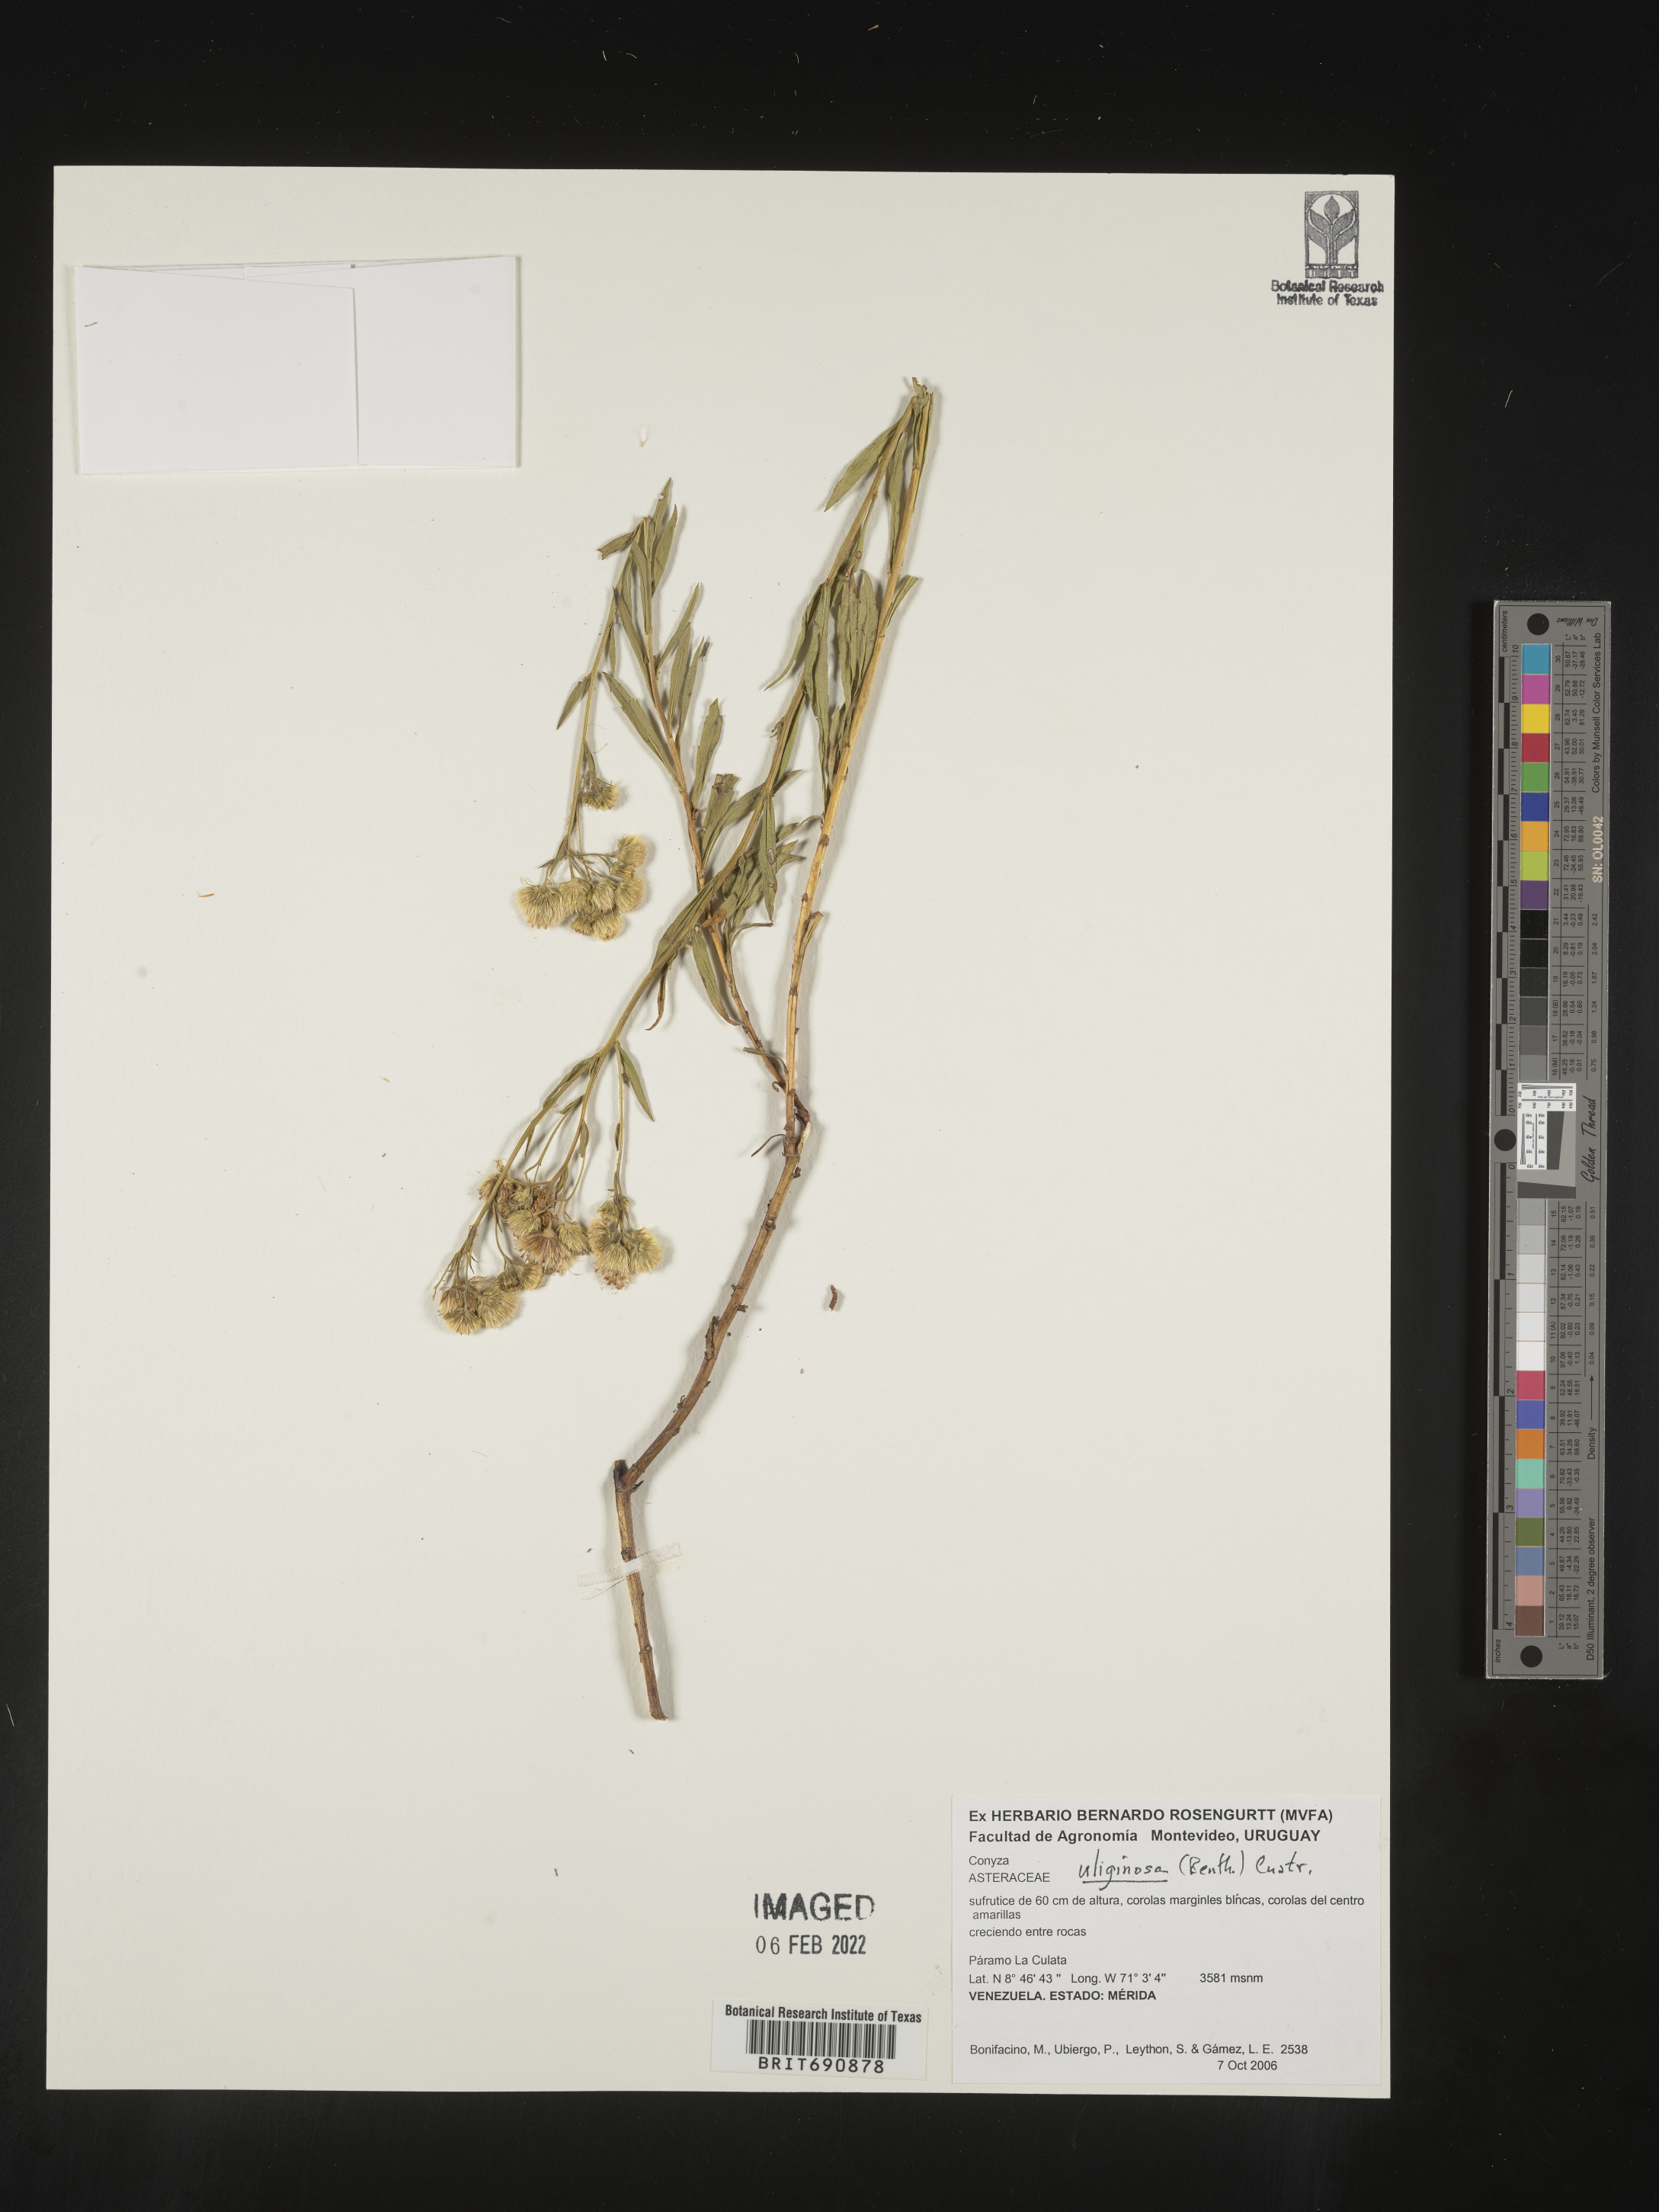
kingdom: Plantae
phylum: Tracheophyta
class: Magnoliopsida
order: Asterales
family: Asteraceae
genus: Conyza
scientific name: Conyza
